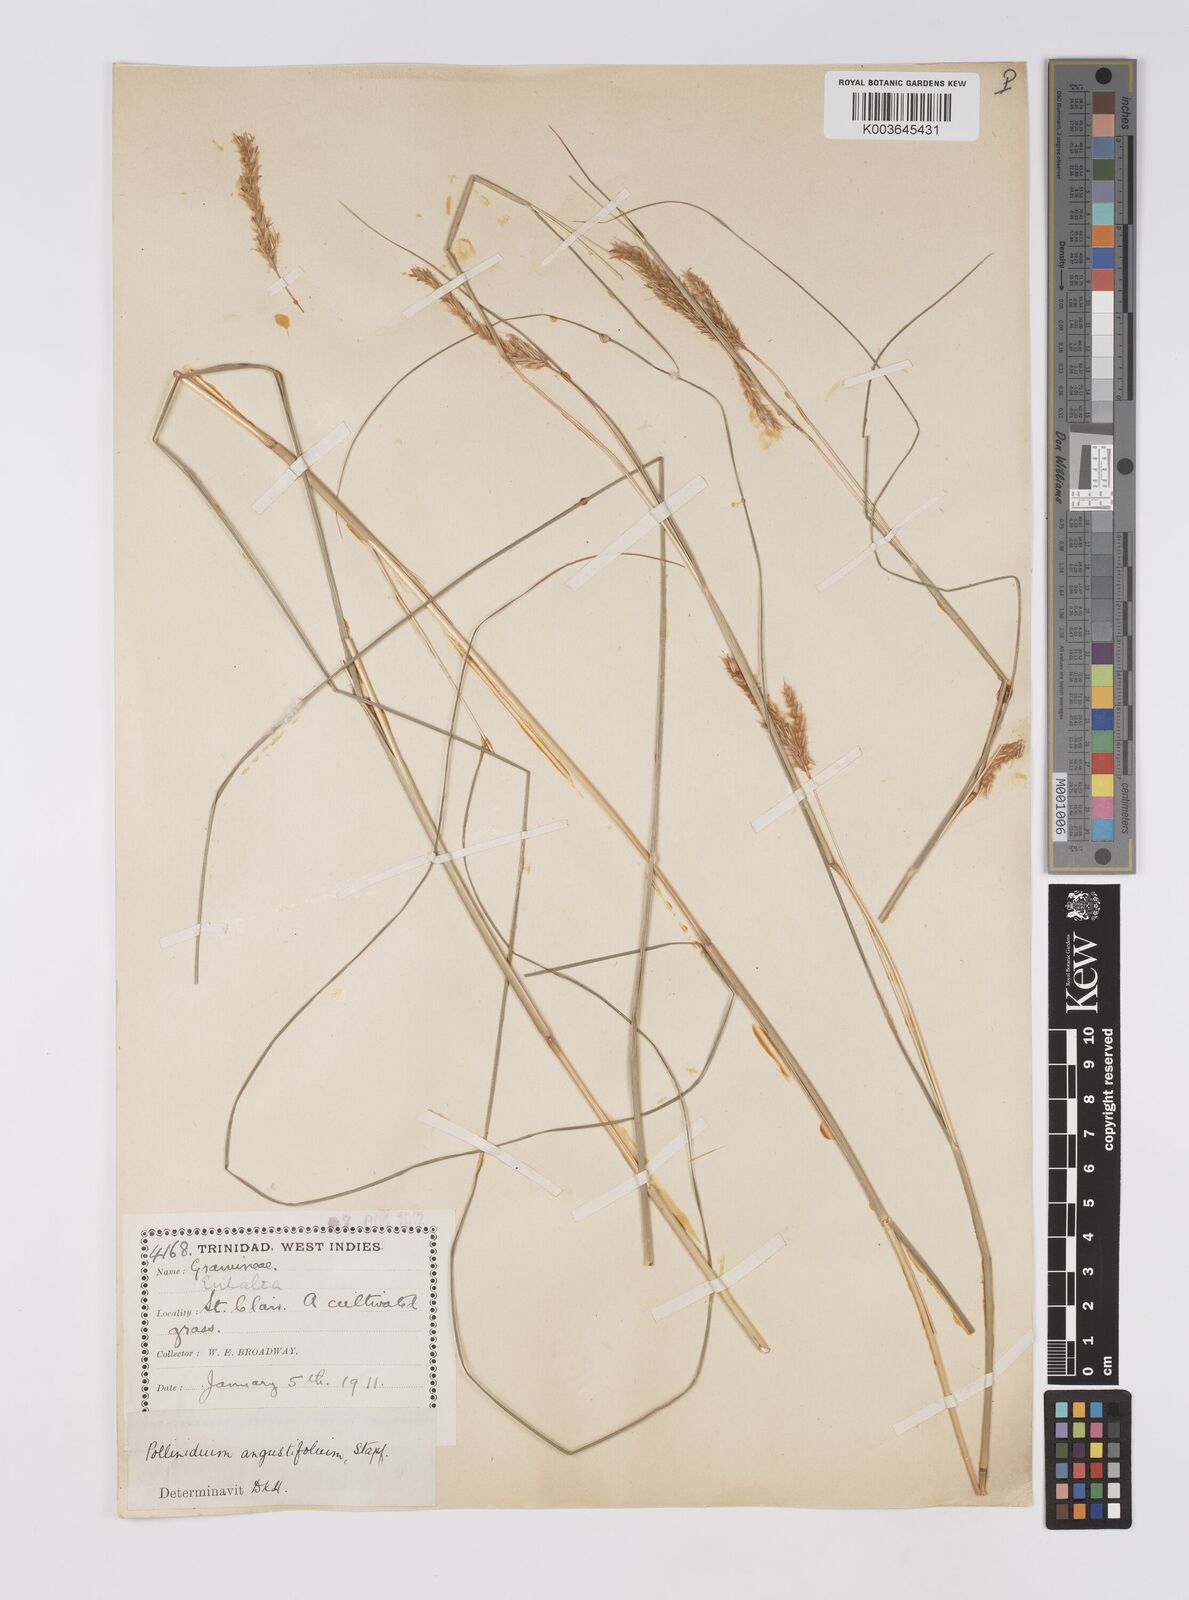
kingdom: Plantae
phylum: Tracheophyta
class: Liliopsida
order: Poales
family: Poaceae
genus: Eulaliopsis
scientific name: Eulaliopsis binata
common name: Baib grass
